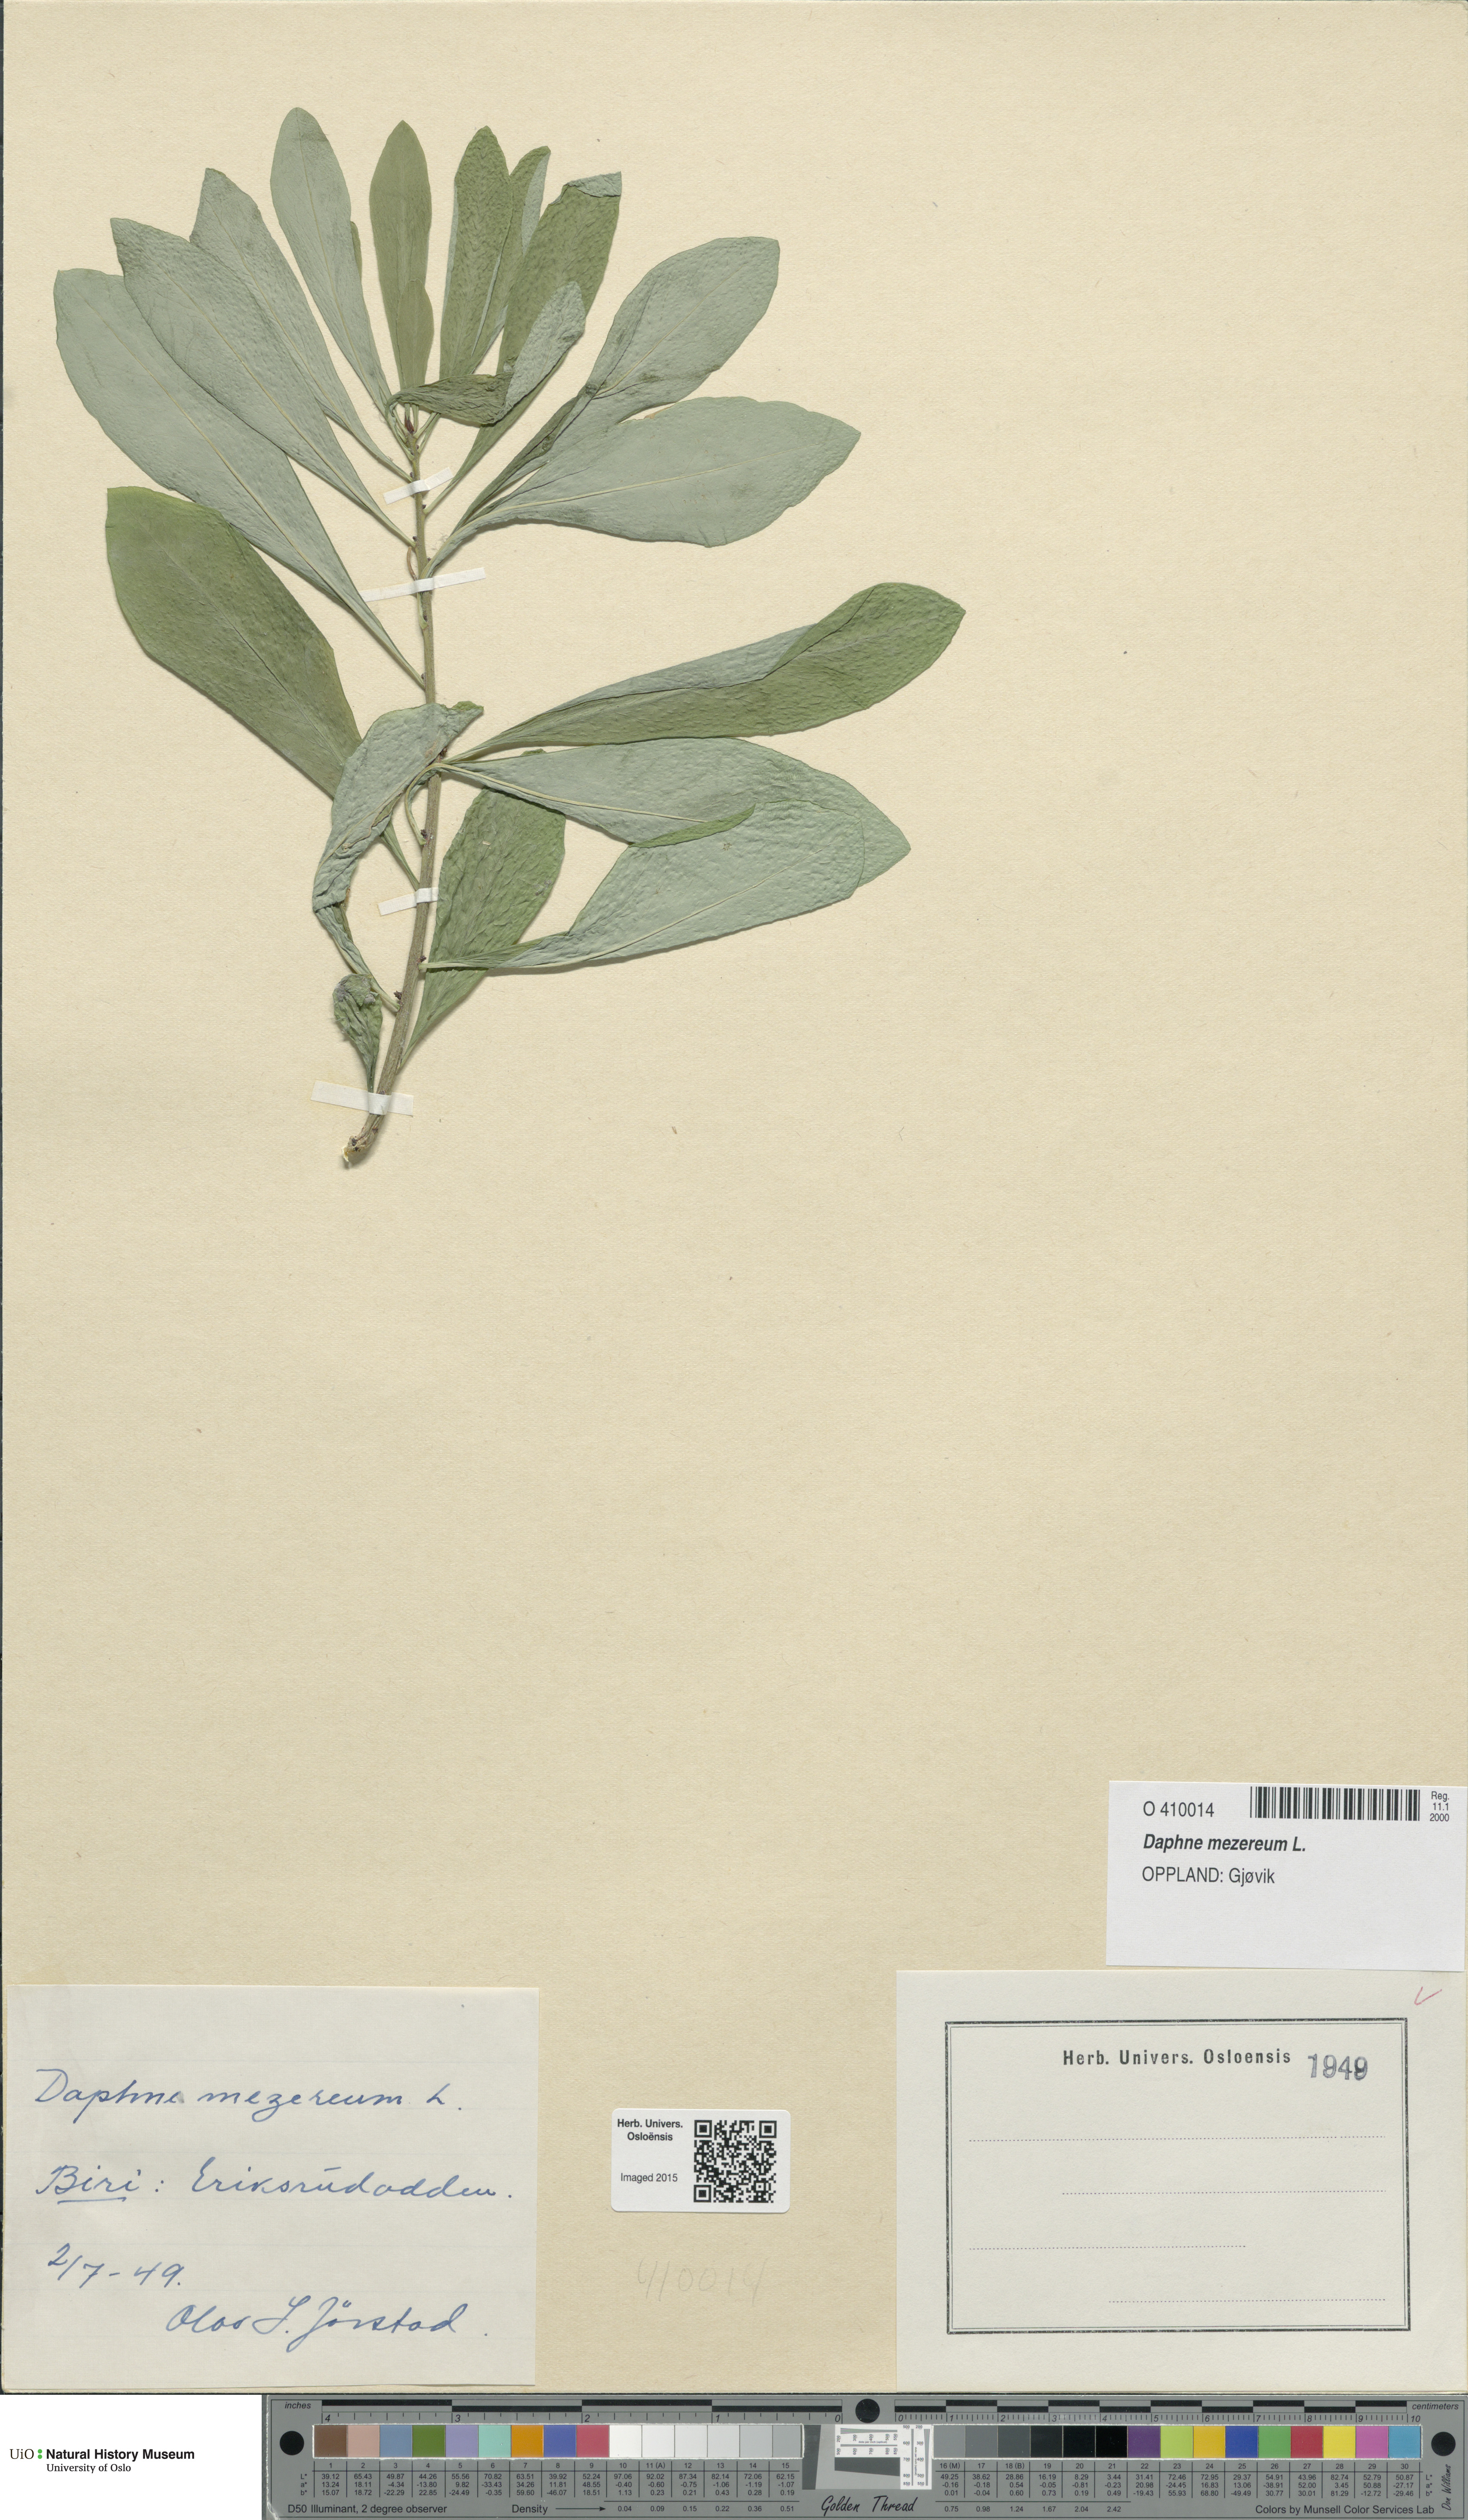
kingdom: Plantae
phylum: Tracheophyta
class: Magnoliopsida
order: Malvales
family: Thymelaeaceae
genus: Daphne
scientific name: Daphne mezereum
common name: Mezereon
